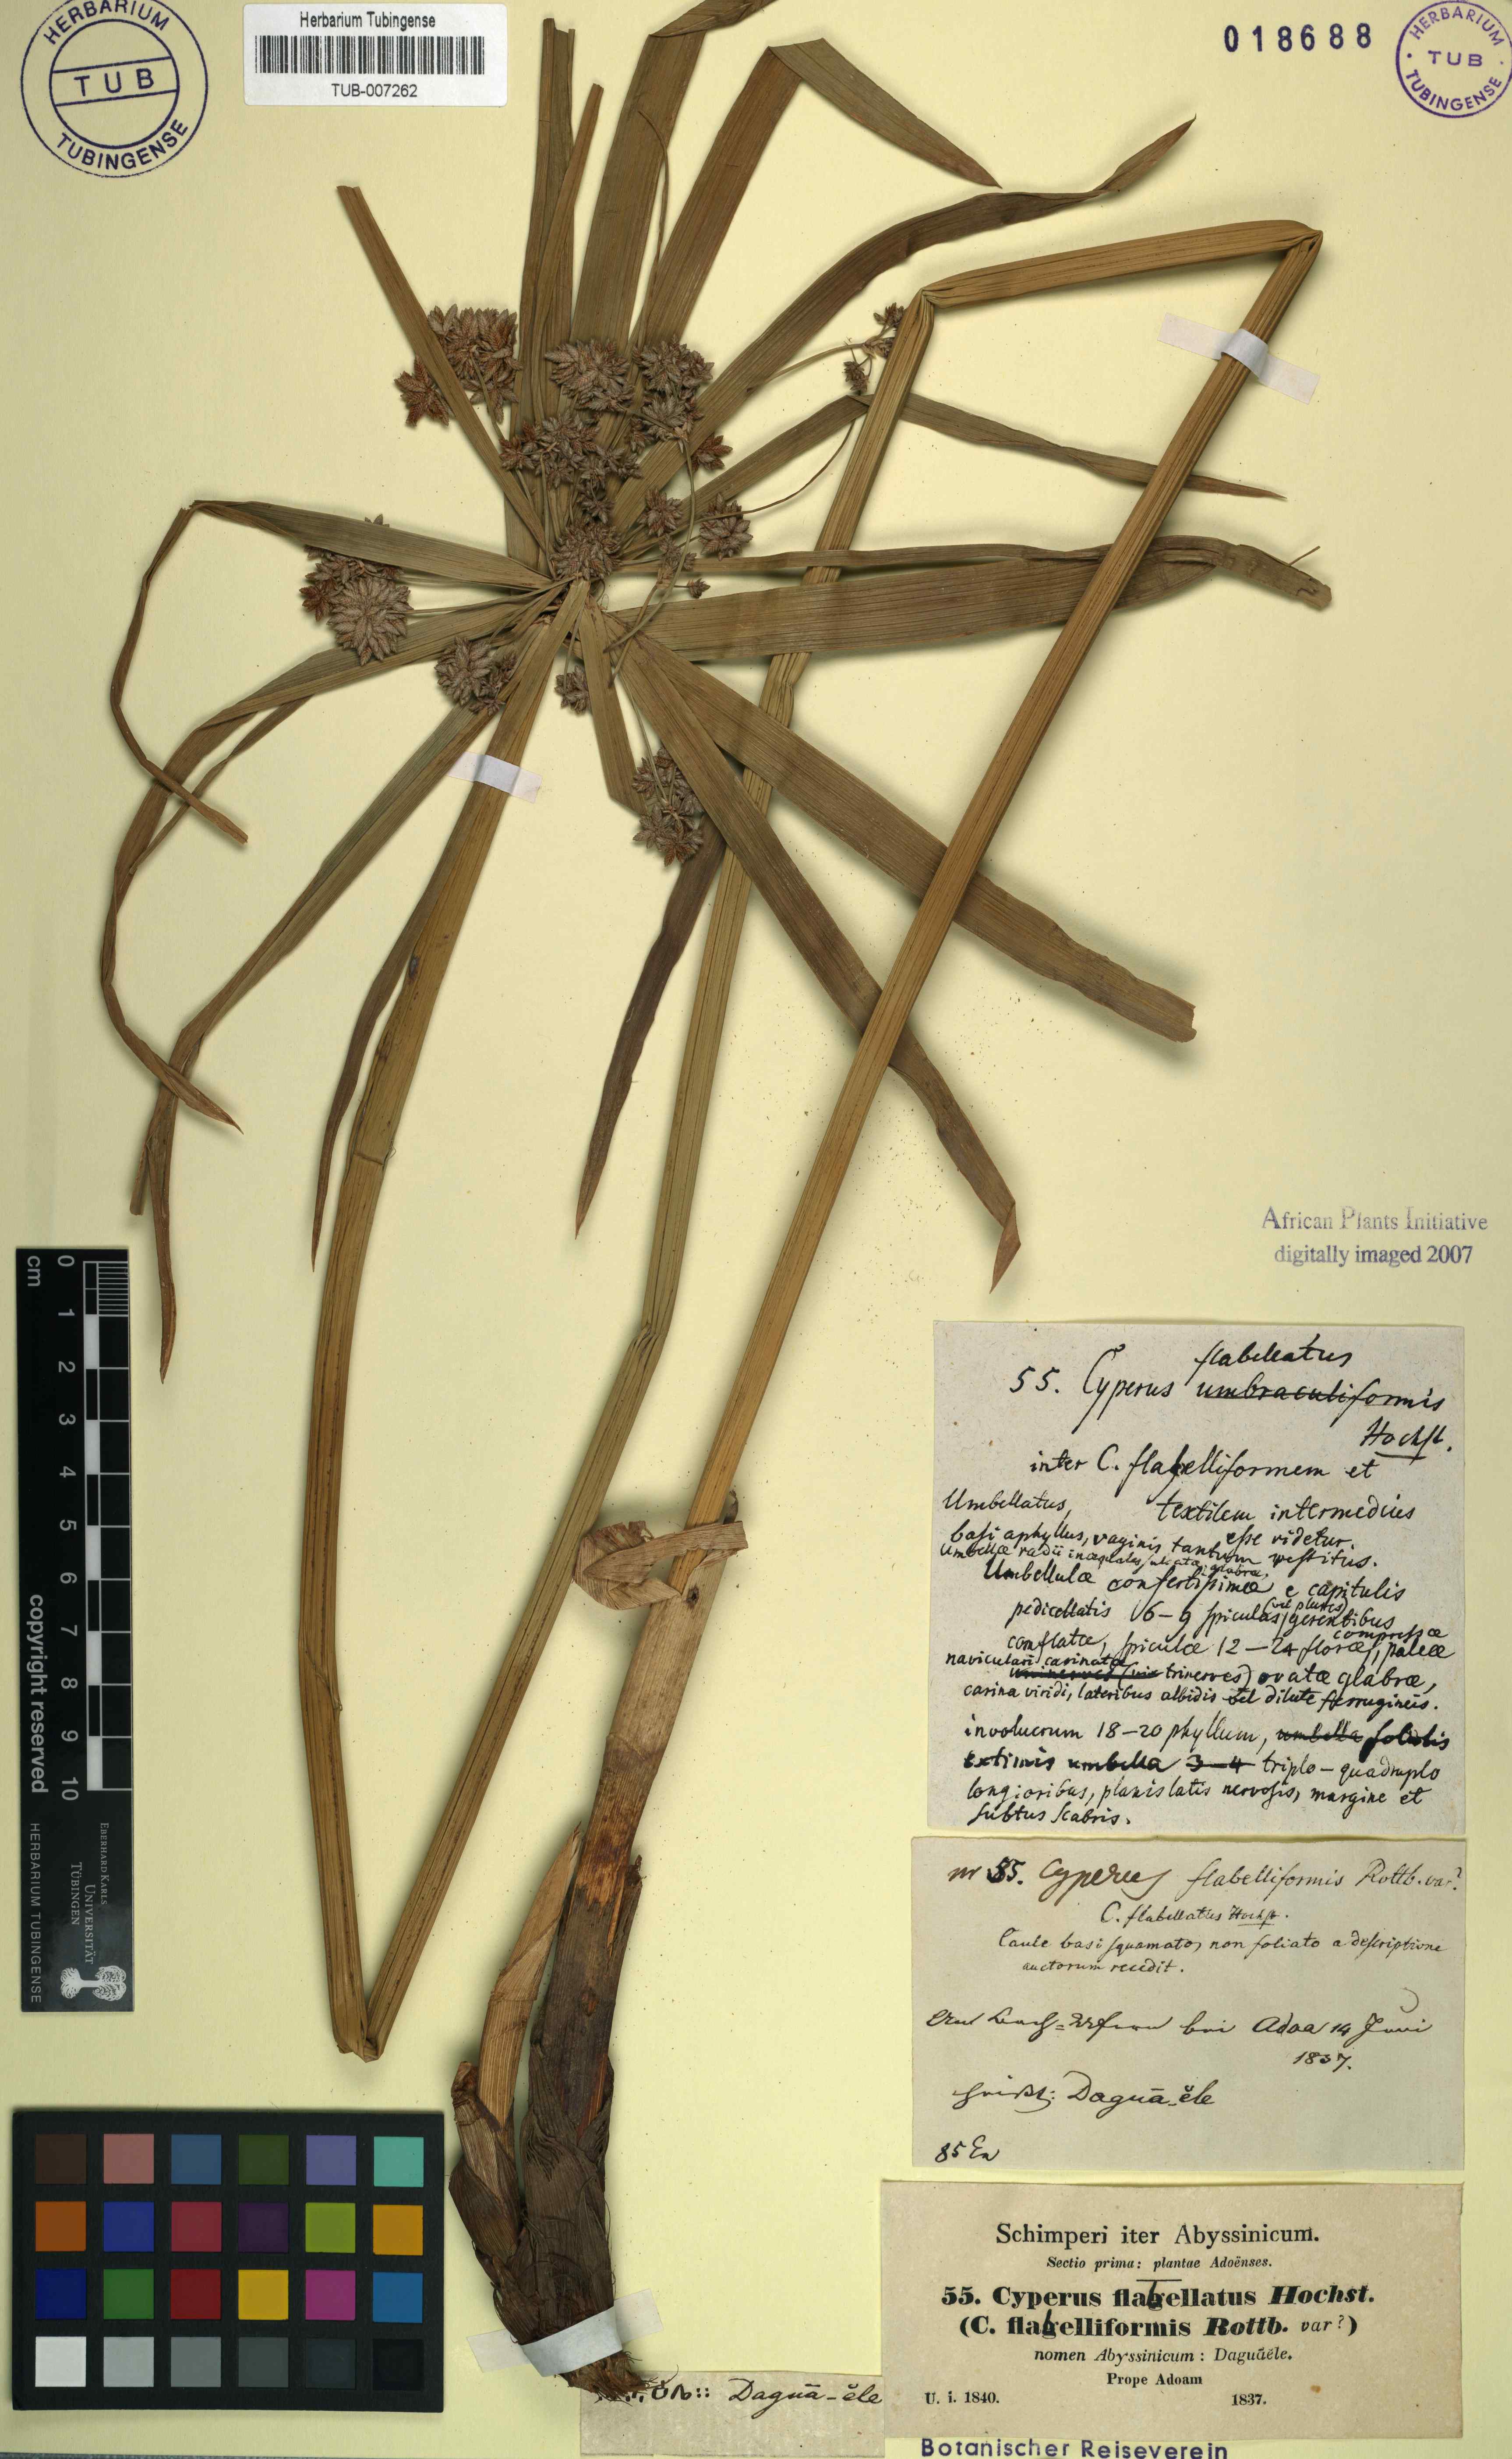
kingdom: Plantae
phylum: Tracheophyta
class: Liliopsida
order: Poales
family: Cyperaceae
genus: Cyperus
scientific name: Cyperus alternifolius
